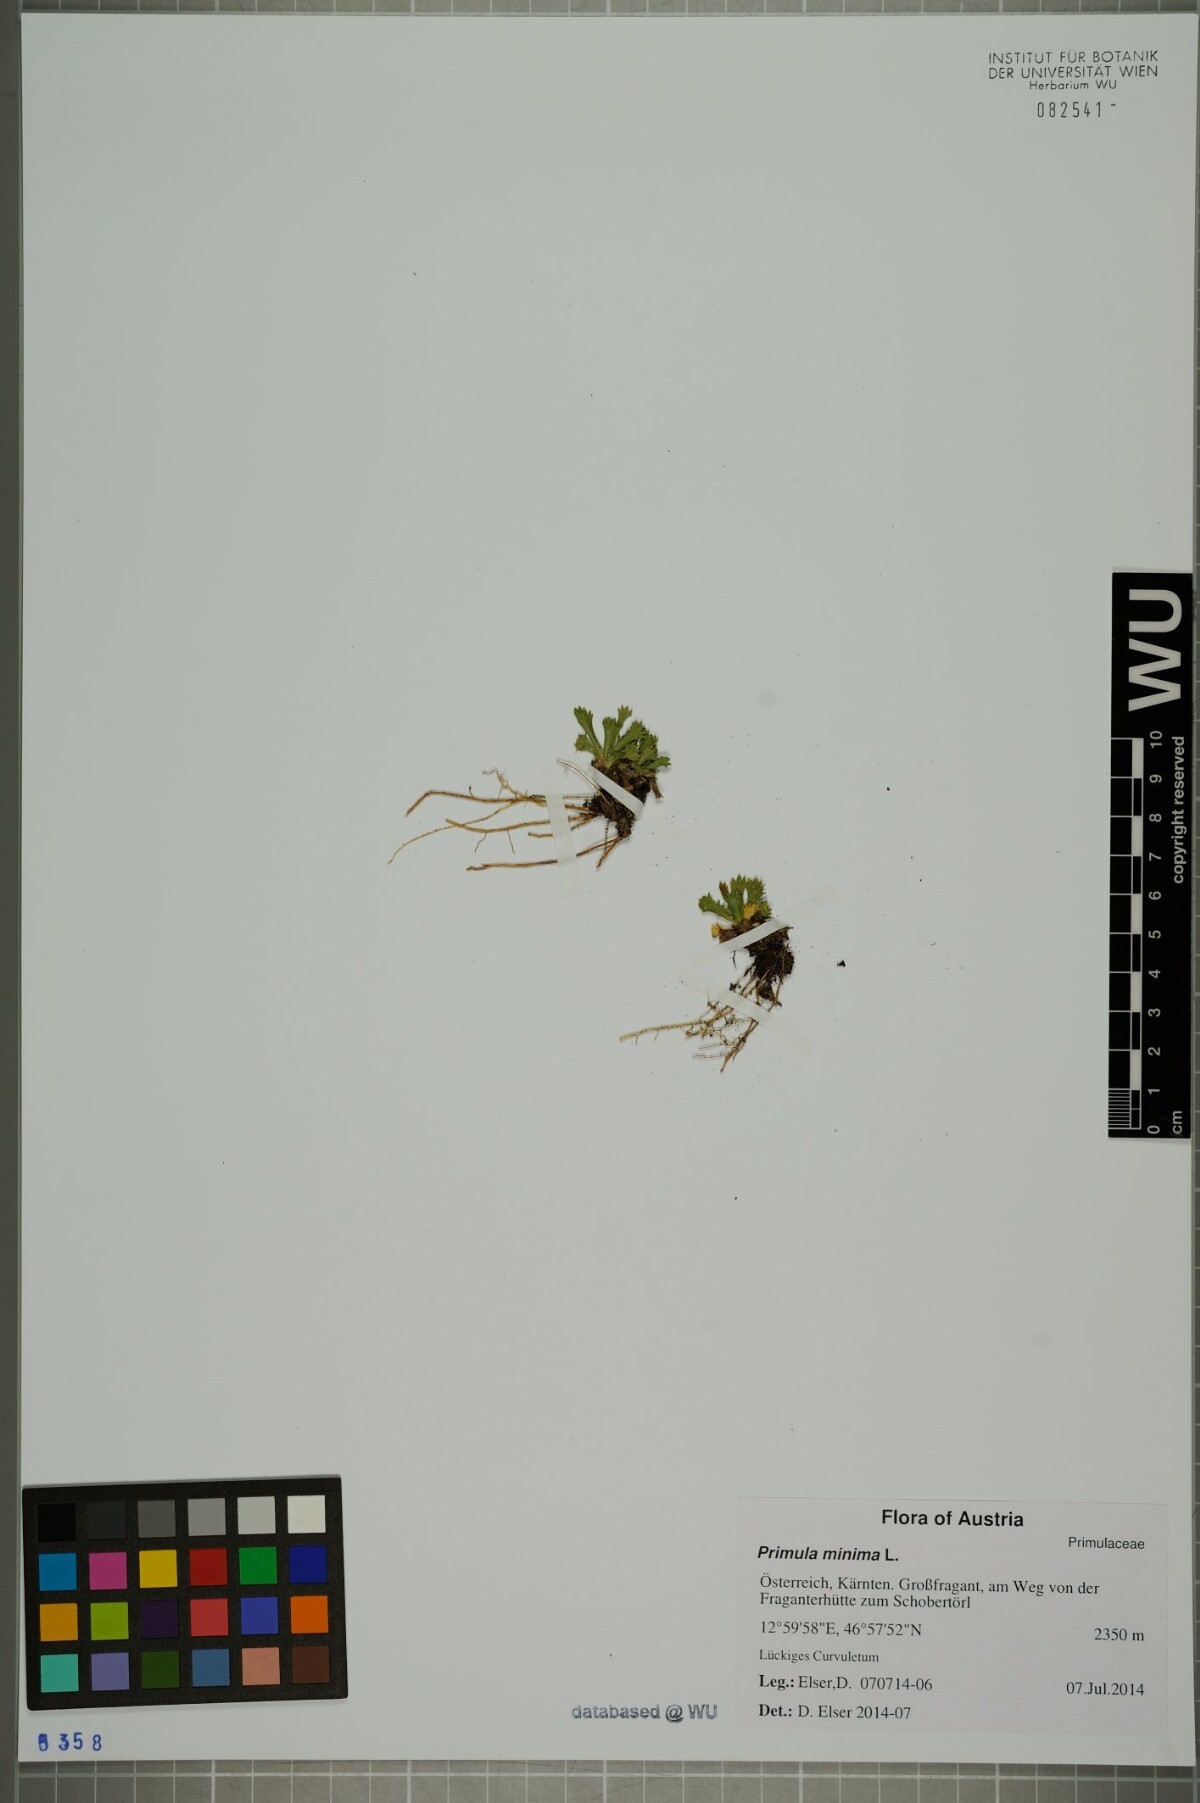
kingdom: Plantae
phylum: Tracheophyta
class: Magnoliopsida
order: Ericales
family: Primulaceae
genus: Primula
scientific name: Primula minima
